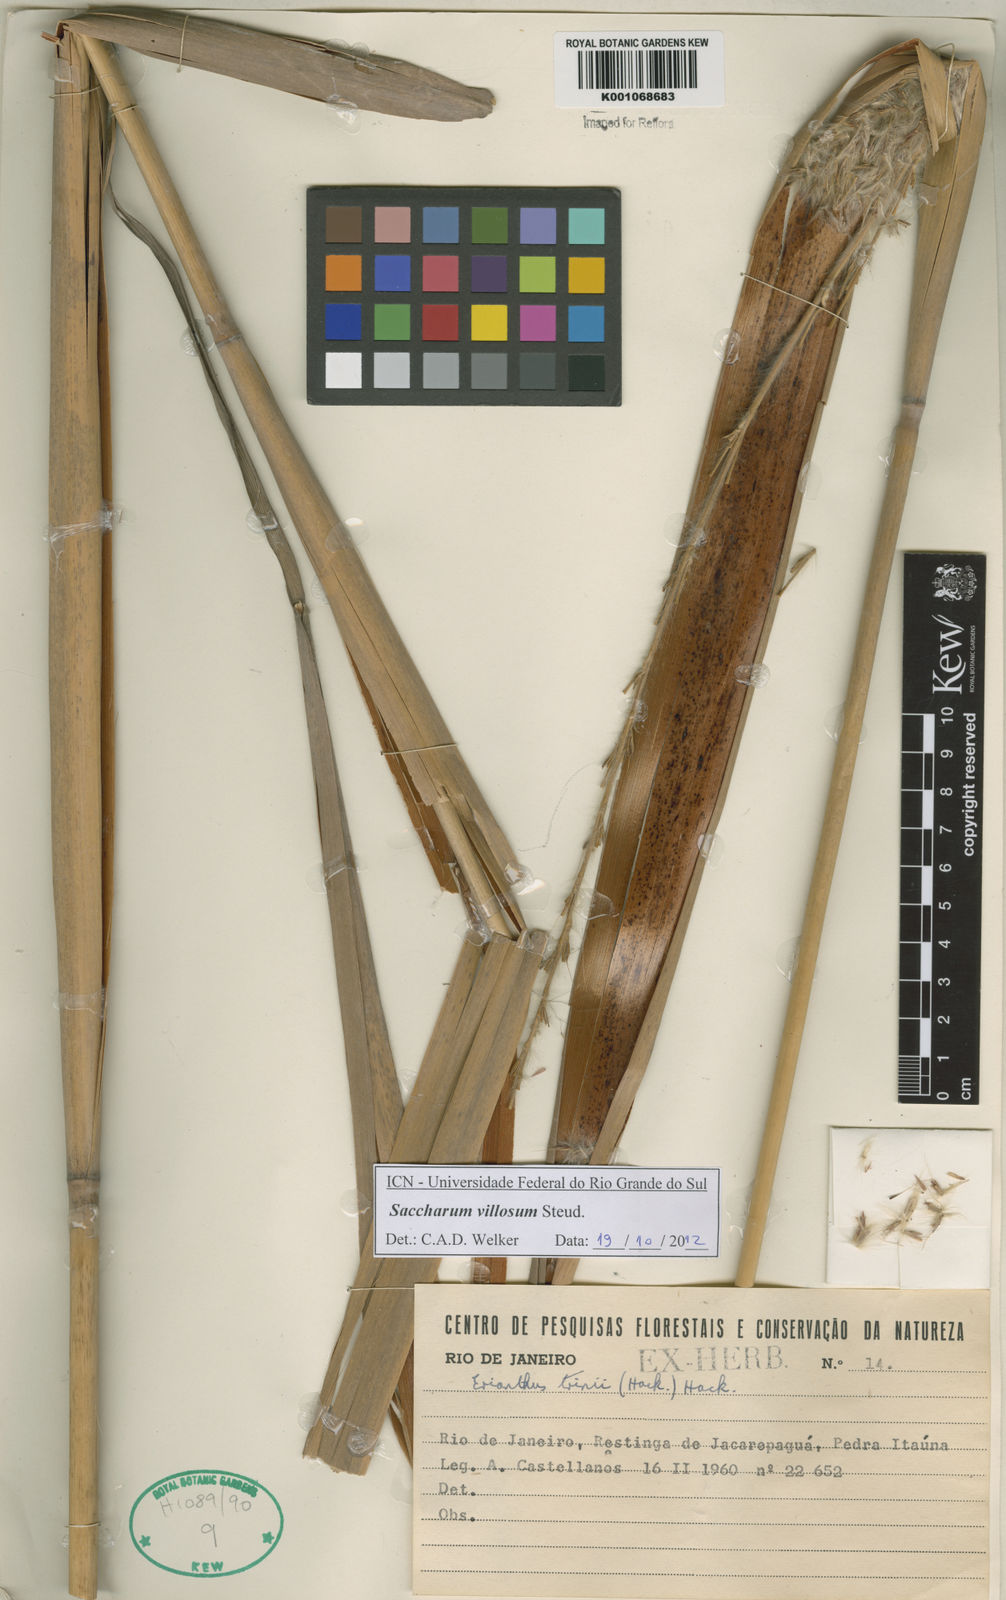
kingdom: Plantae
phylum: Tracheophyta
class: Liliopsida
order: Poales
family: Poaceae
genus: Erianthus
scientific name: Erianthus trinii
